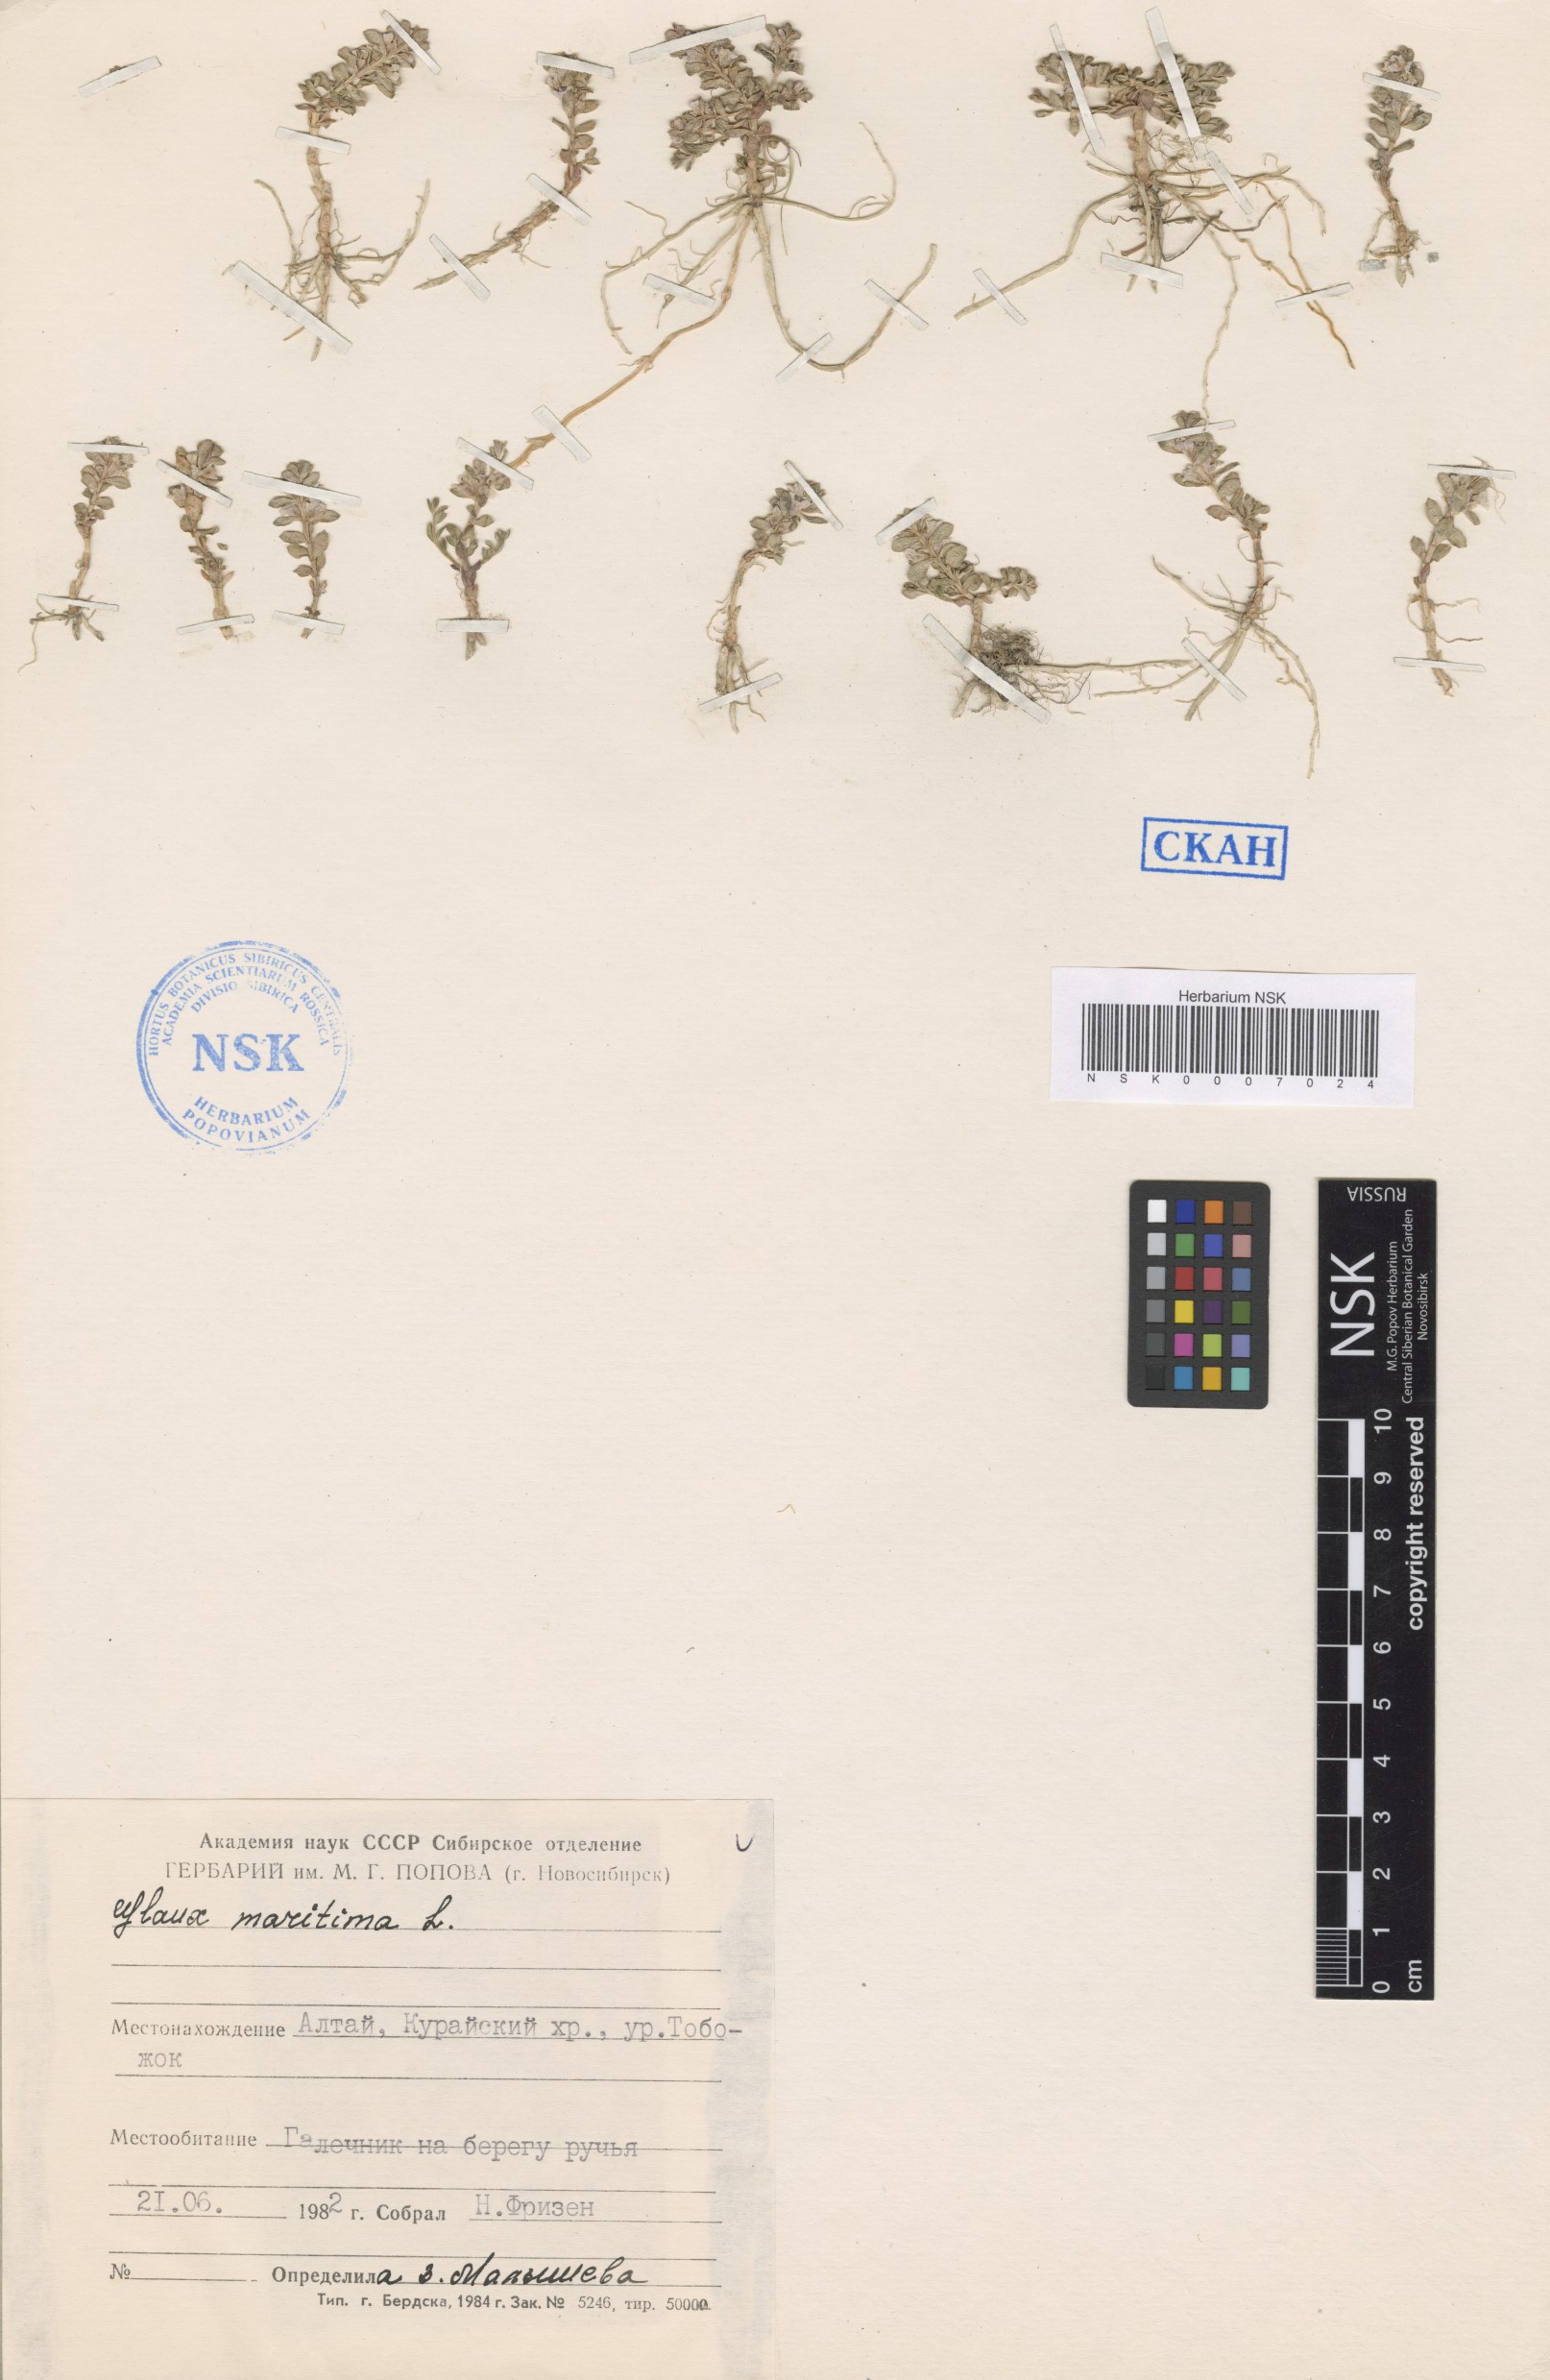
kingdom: Plantae
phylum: Tracheophyta
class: Magnoliopsida
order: Ericales
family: Primulaceae
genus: Lysimachia
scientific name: Lysimachia maritima
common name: Sea milkwort
